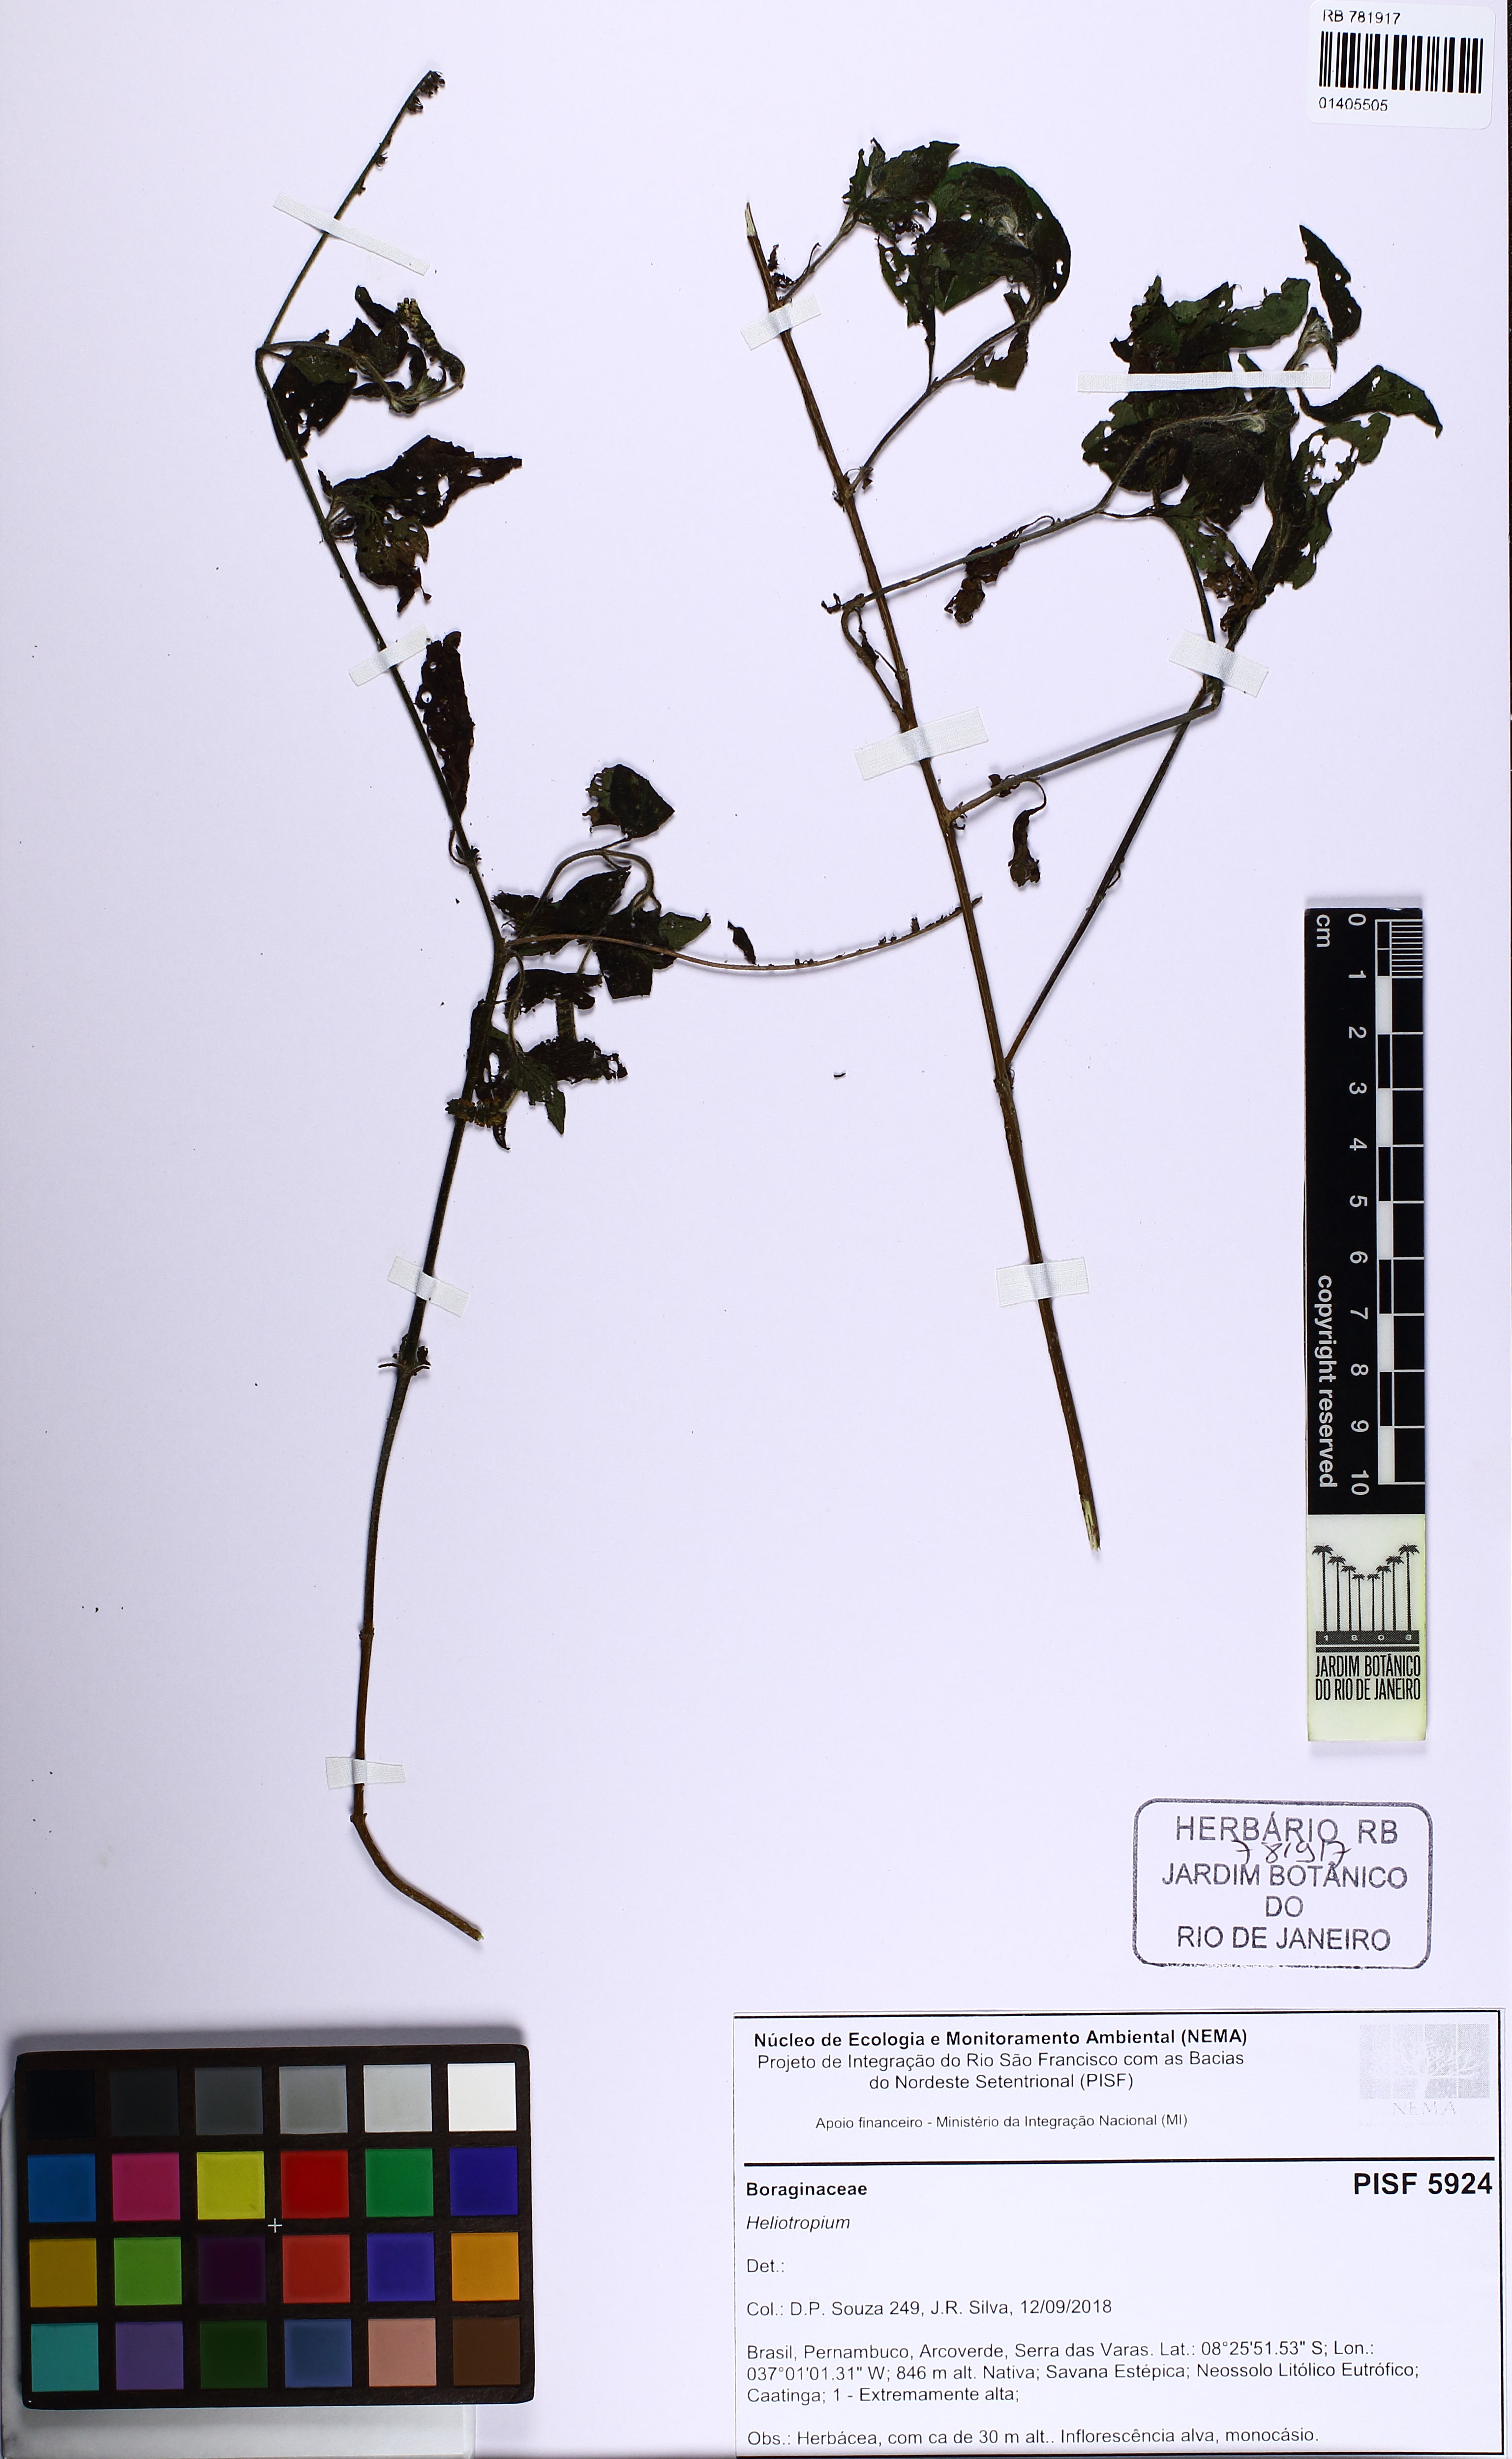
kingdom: Plantae
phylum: Tracheophyta
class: Magnoliopsida
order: Boraginales
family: Heliotropiaceae
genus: Heliotropium
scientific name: Heliotropium angiospermum
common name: Eye bright
